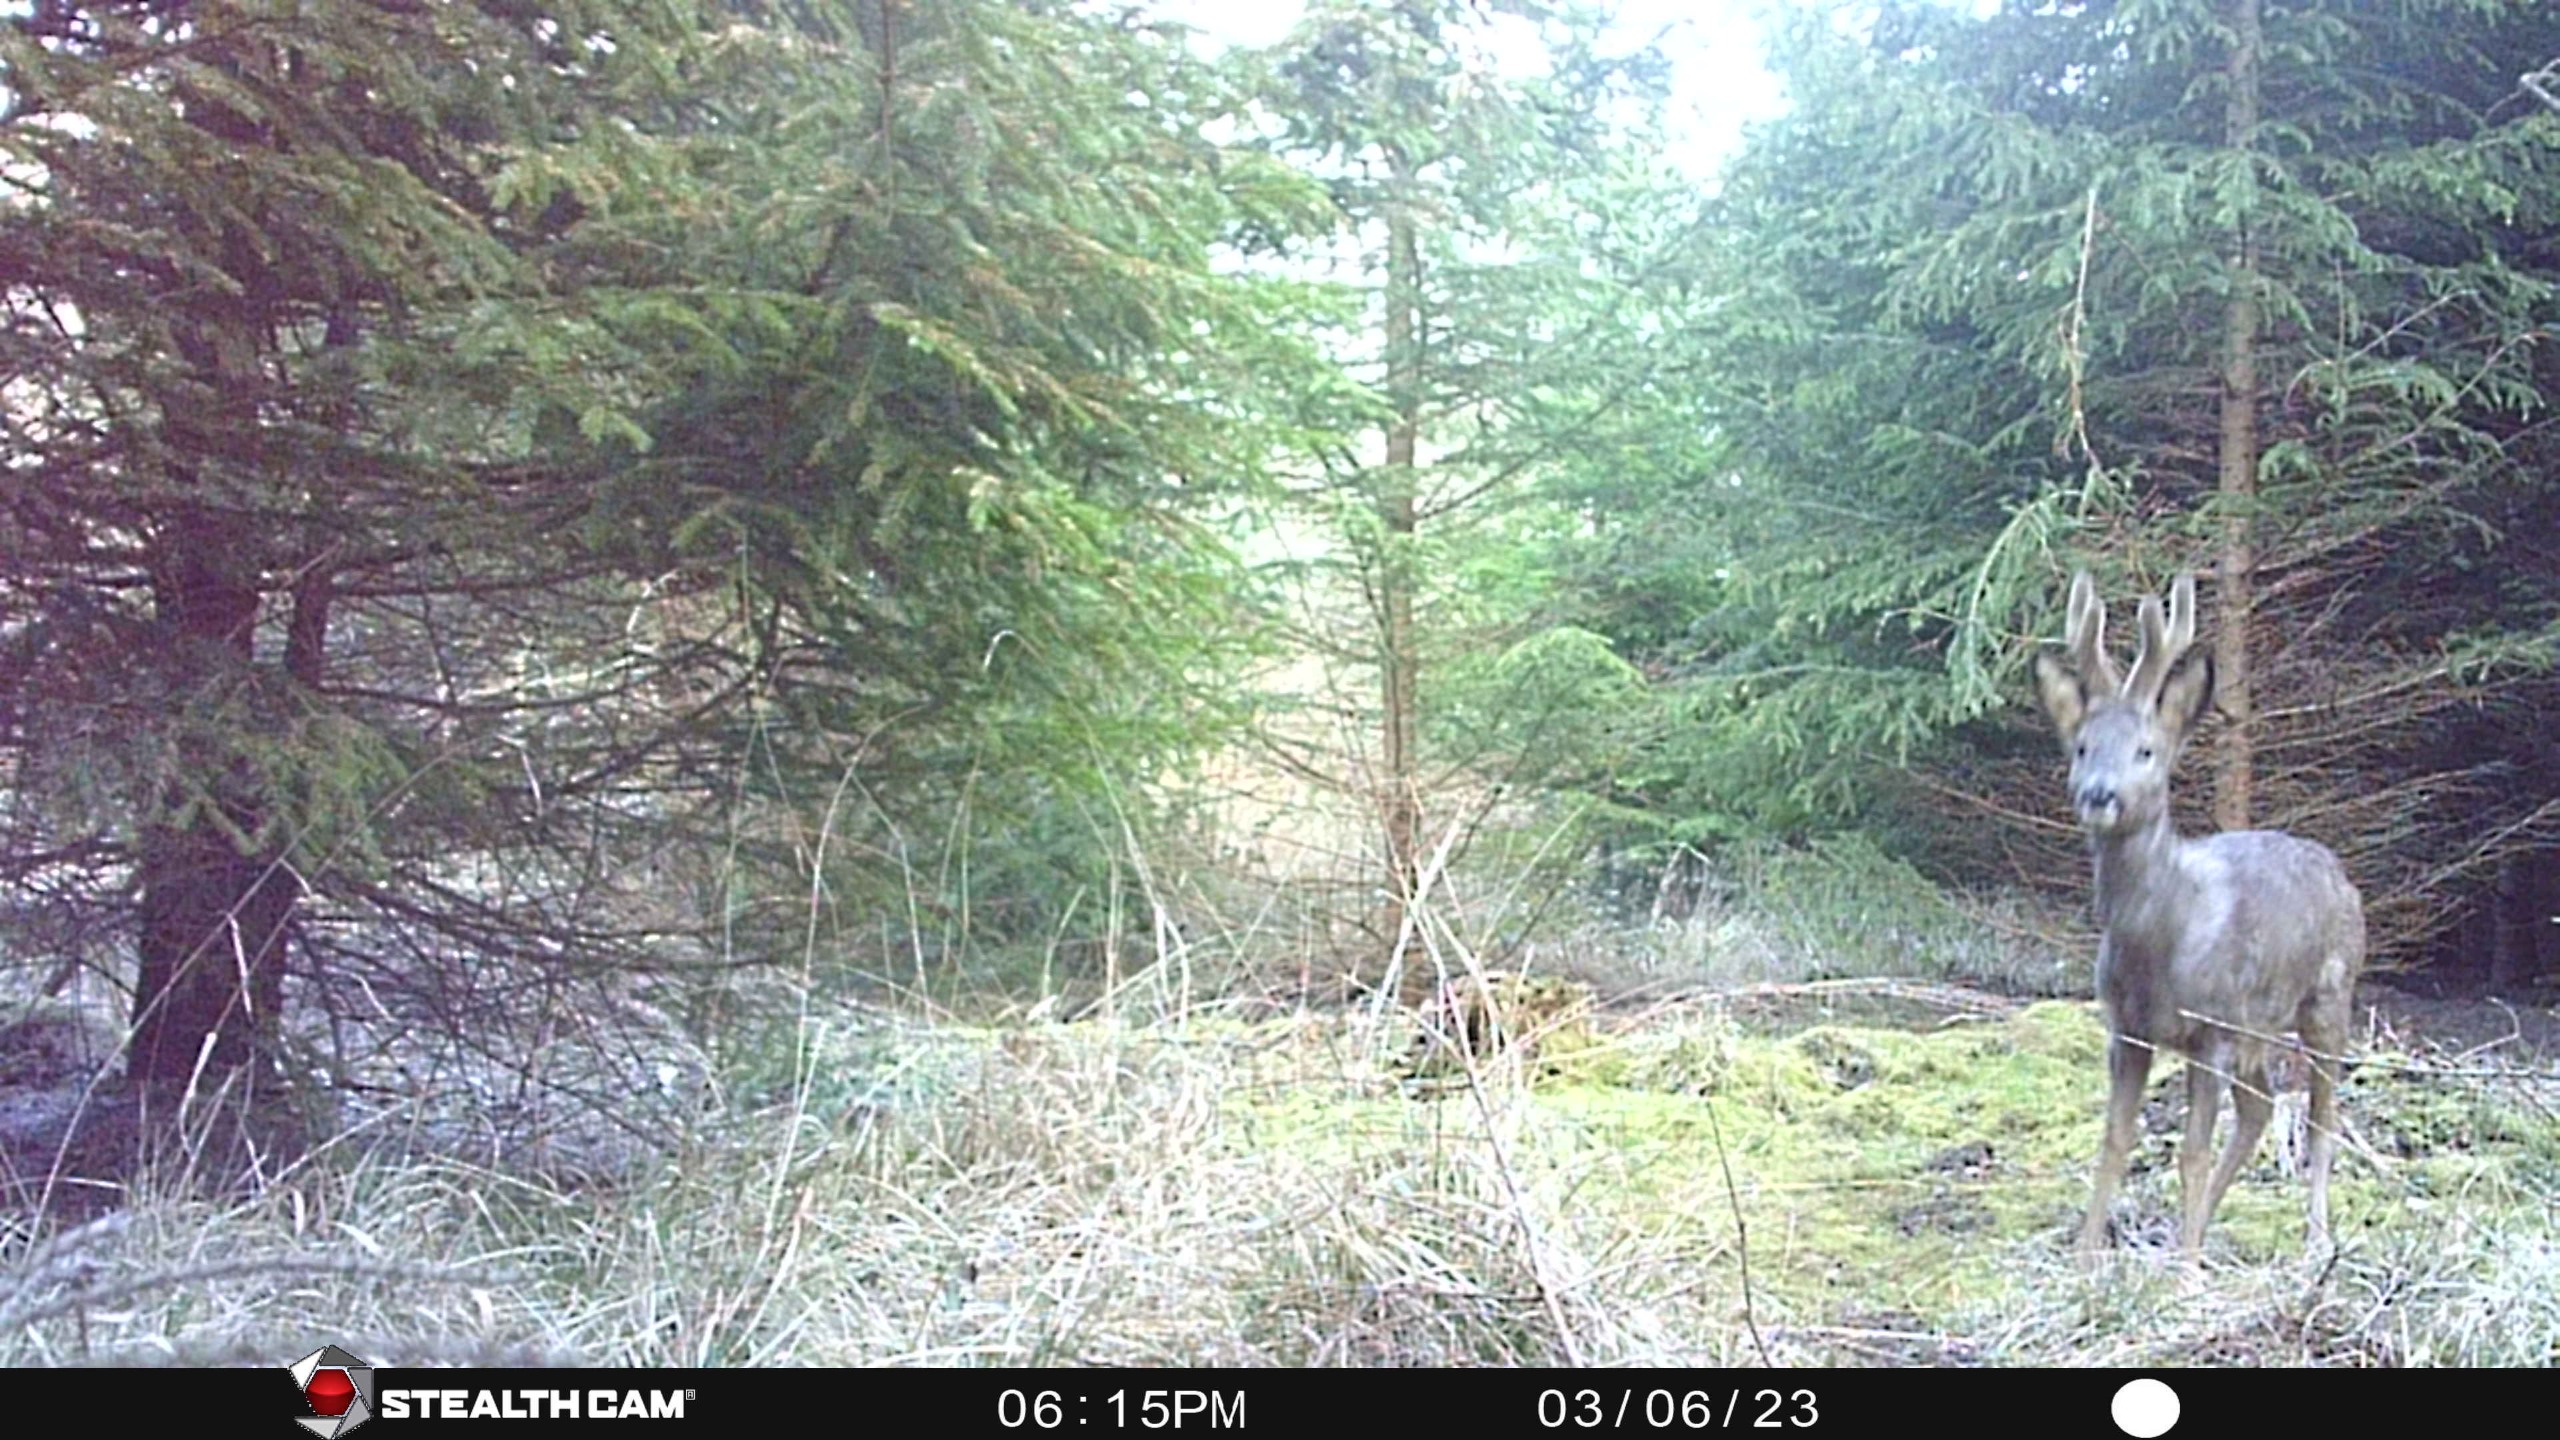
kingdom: Animalia
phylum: Chordata
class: Mammalia
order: Artiodactyla
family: Cervidae
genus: Capreolus
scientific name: Capreolus capreolus
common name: Rådyr
